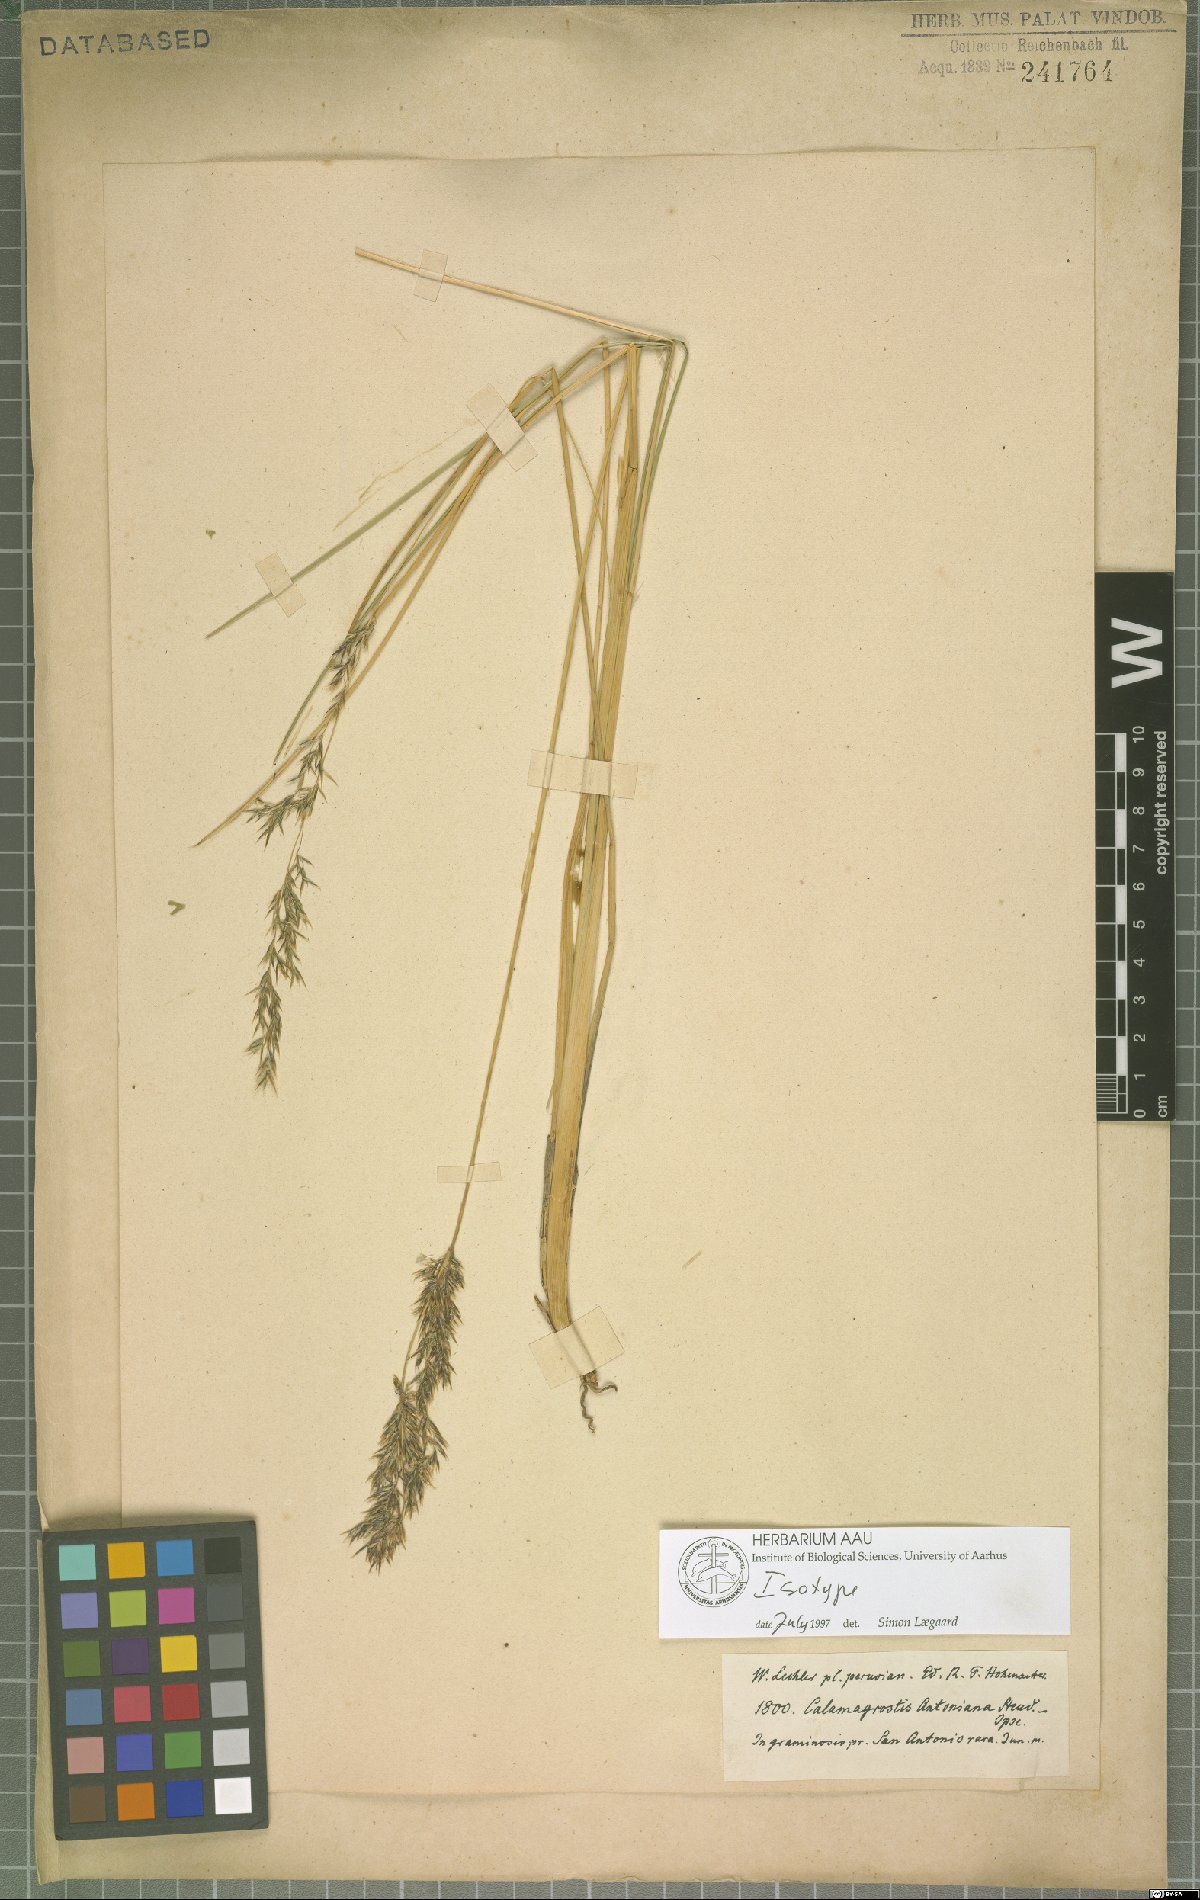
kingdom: Plantae
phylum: Tracheophyta
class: Liliopsida
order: Poales
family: Poaceae
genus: Cinnagrostis
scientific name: Cinnagrostis rigida
